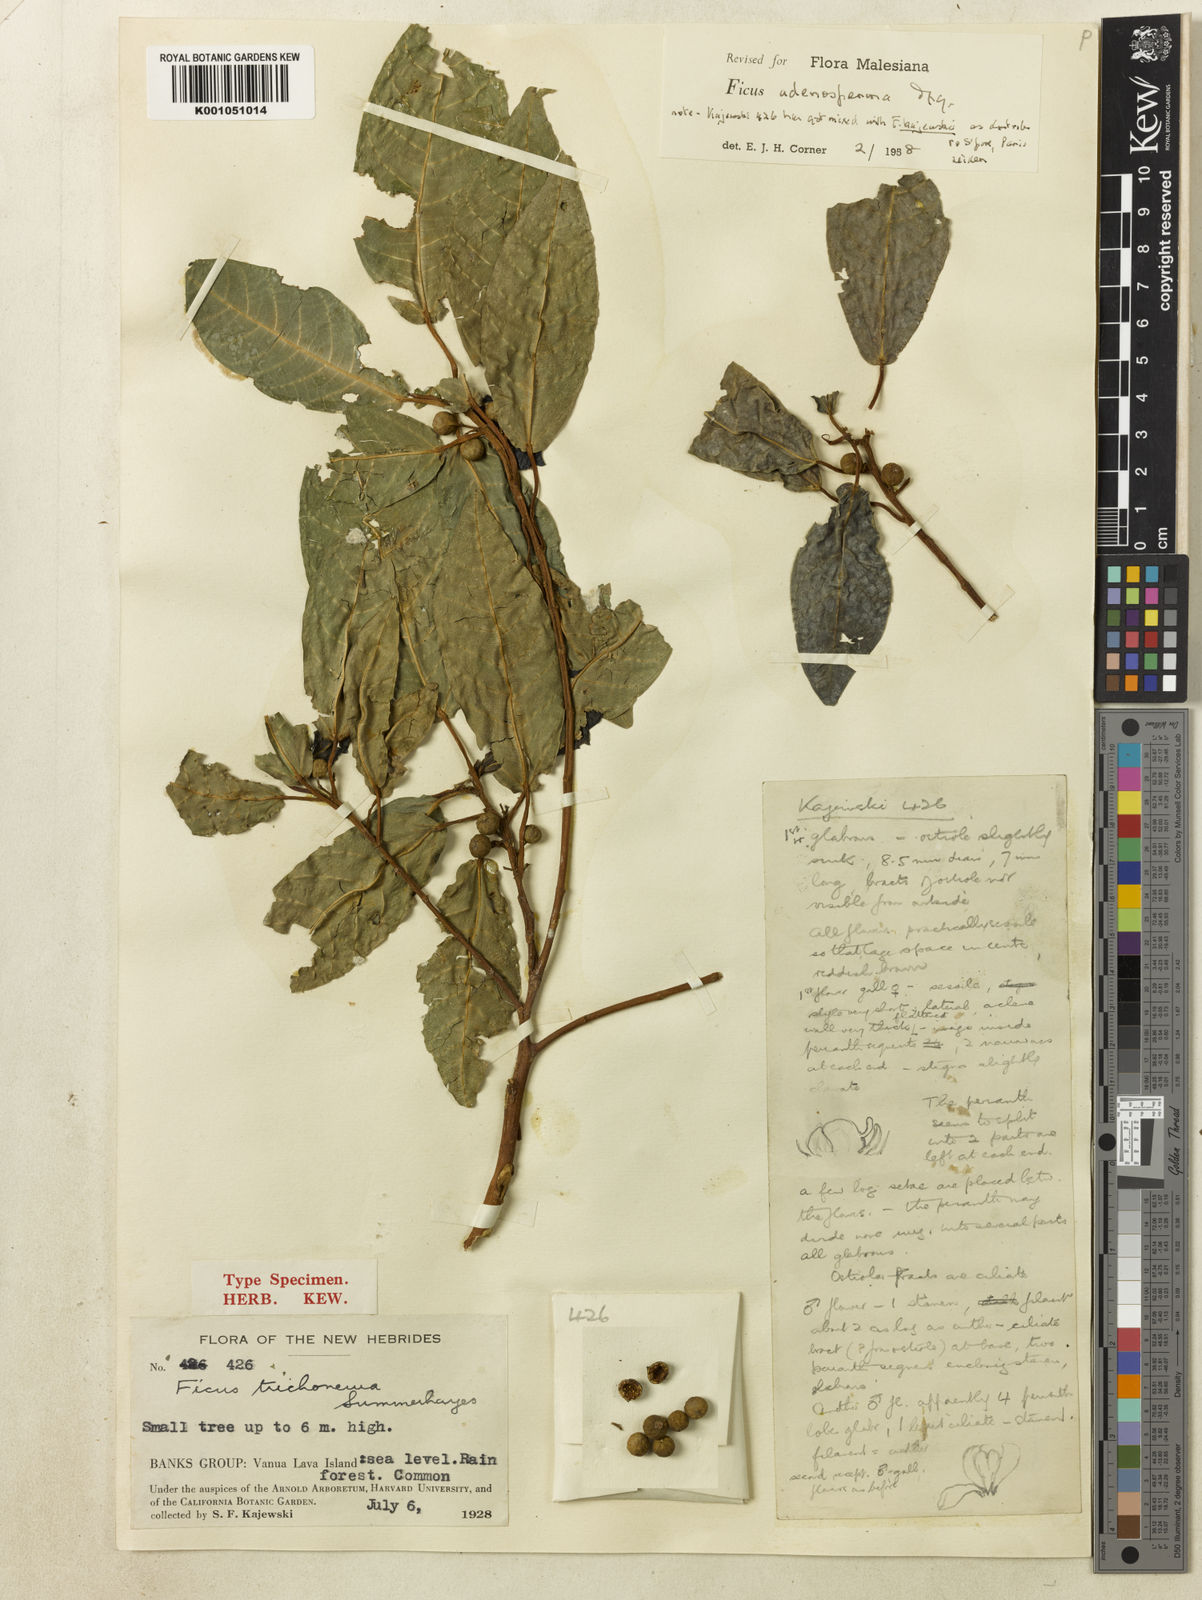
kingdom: Plantae
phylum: Tracheophyta
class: Magnoliopsida
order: Rosales
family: Moraceae
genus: Ficus
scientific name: Ficus adenosperma
